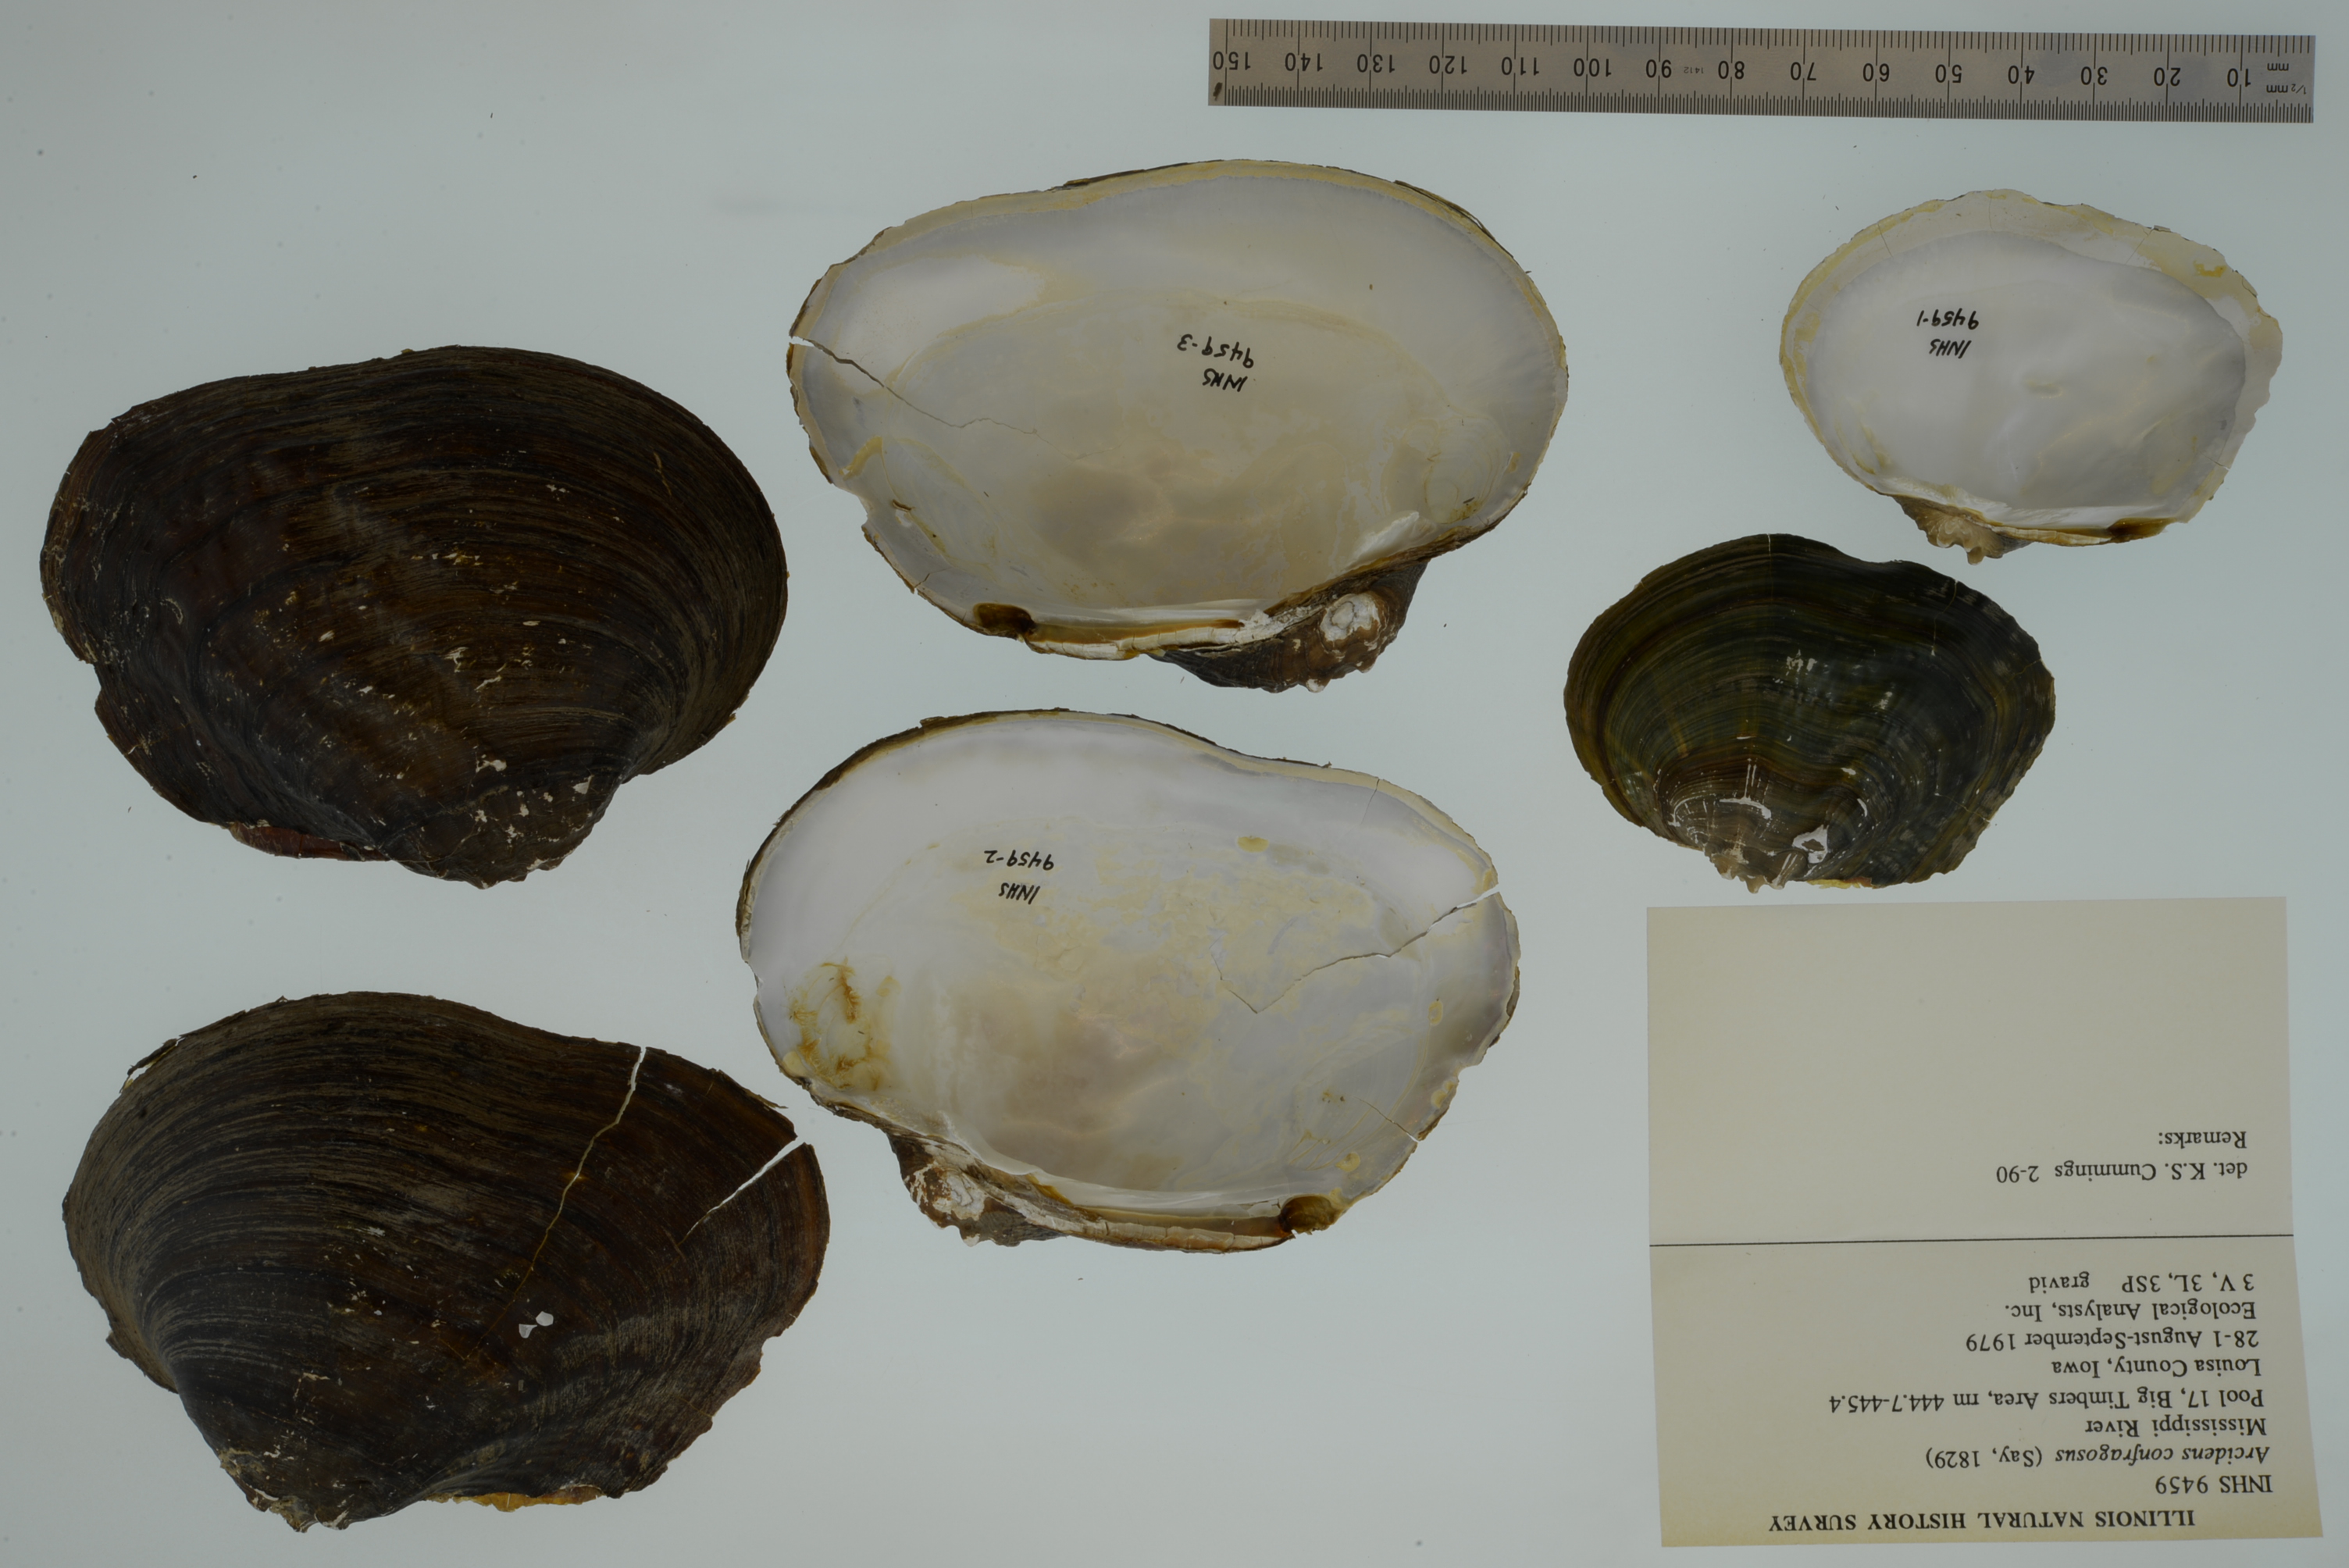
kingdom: Animalia
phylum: Mollusca
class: Bivalvia
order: Unionida
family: Unionidae
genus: Arcidens
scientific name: Arcidens confragosus
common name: Rock pocketbook
